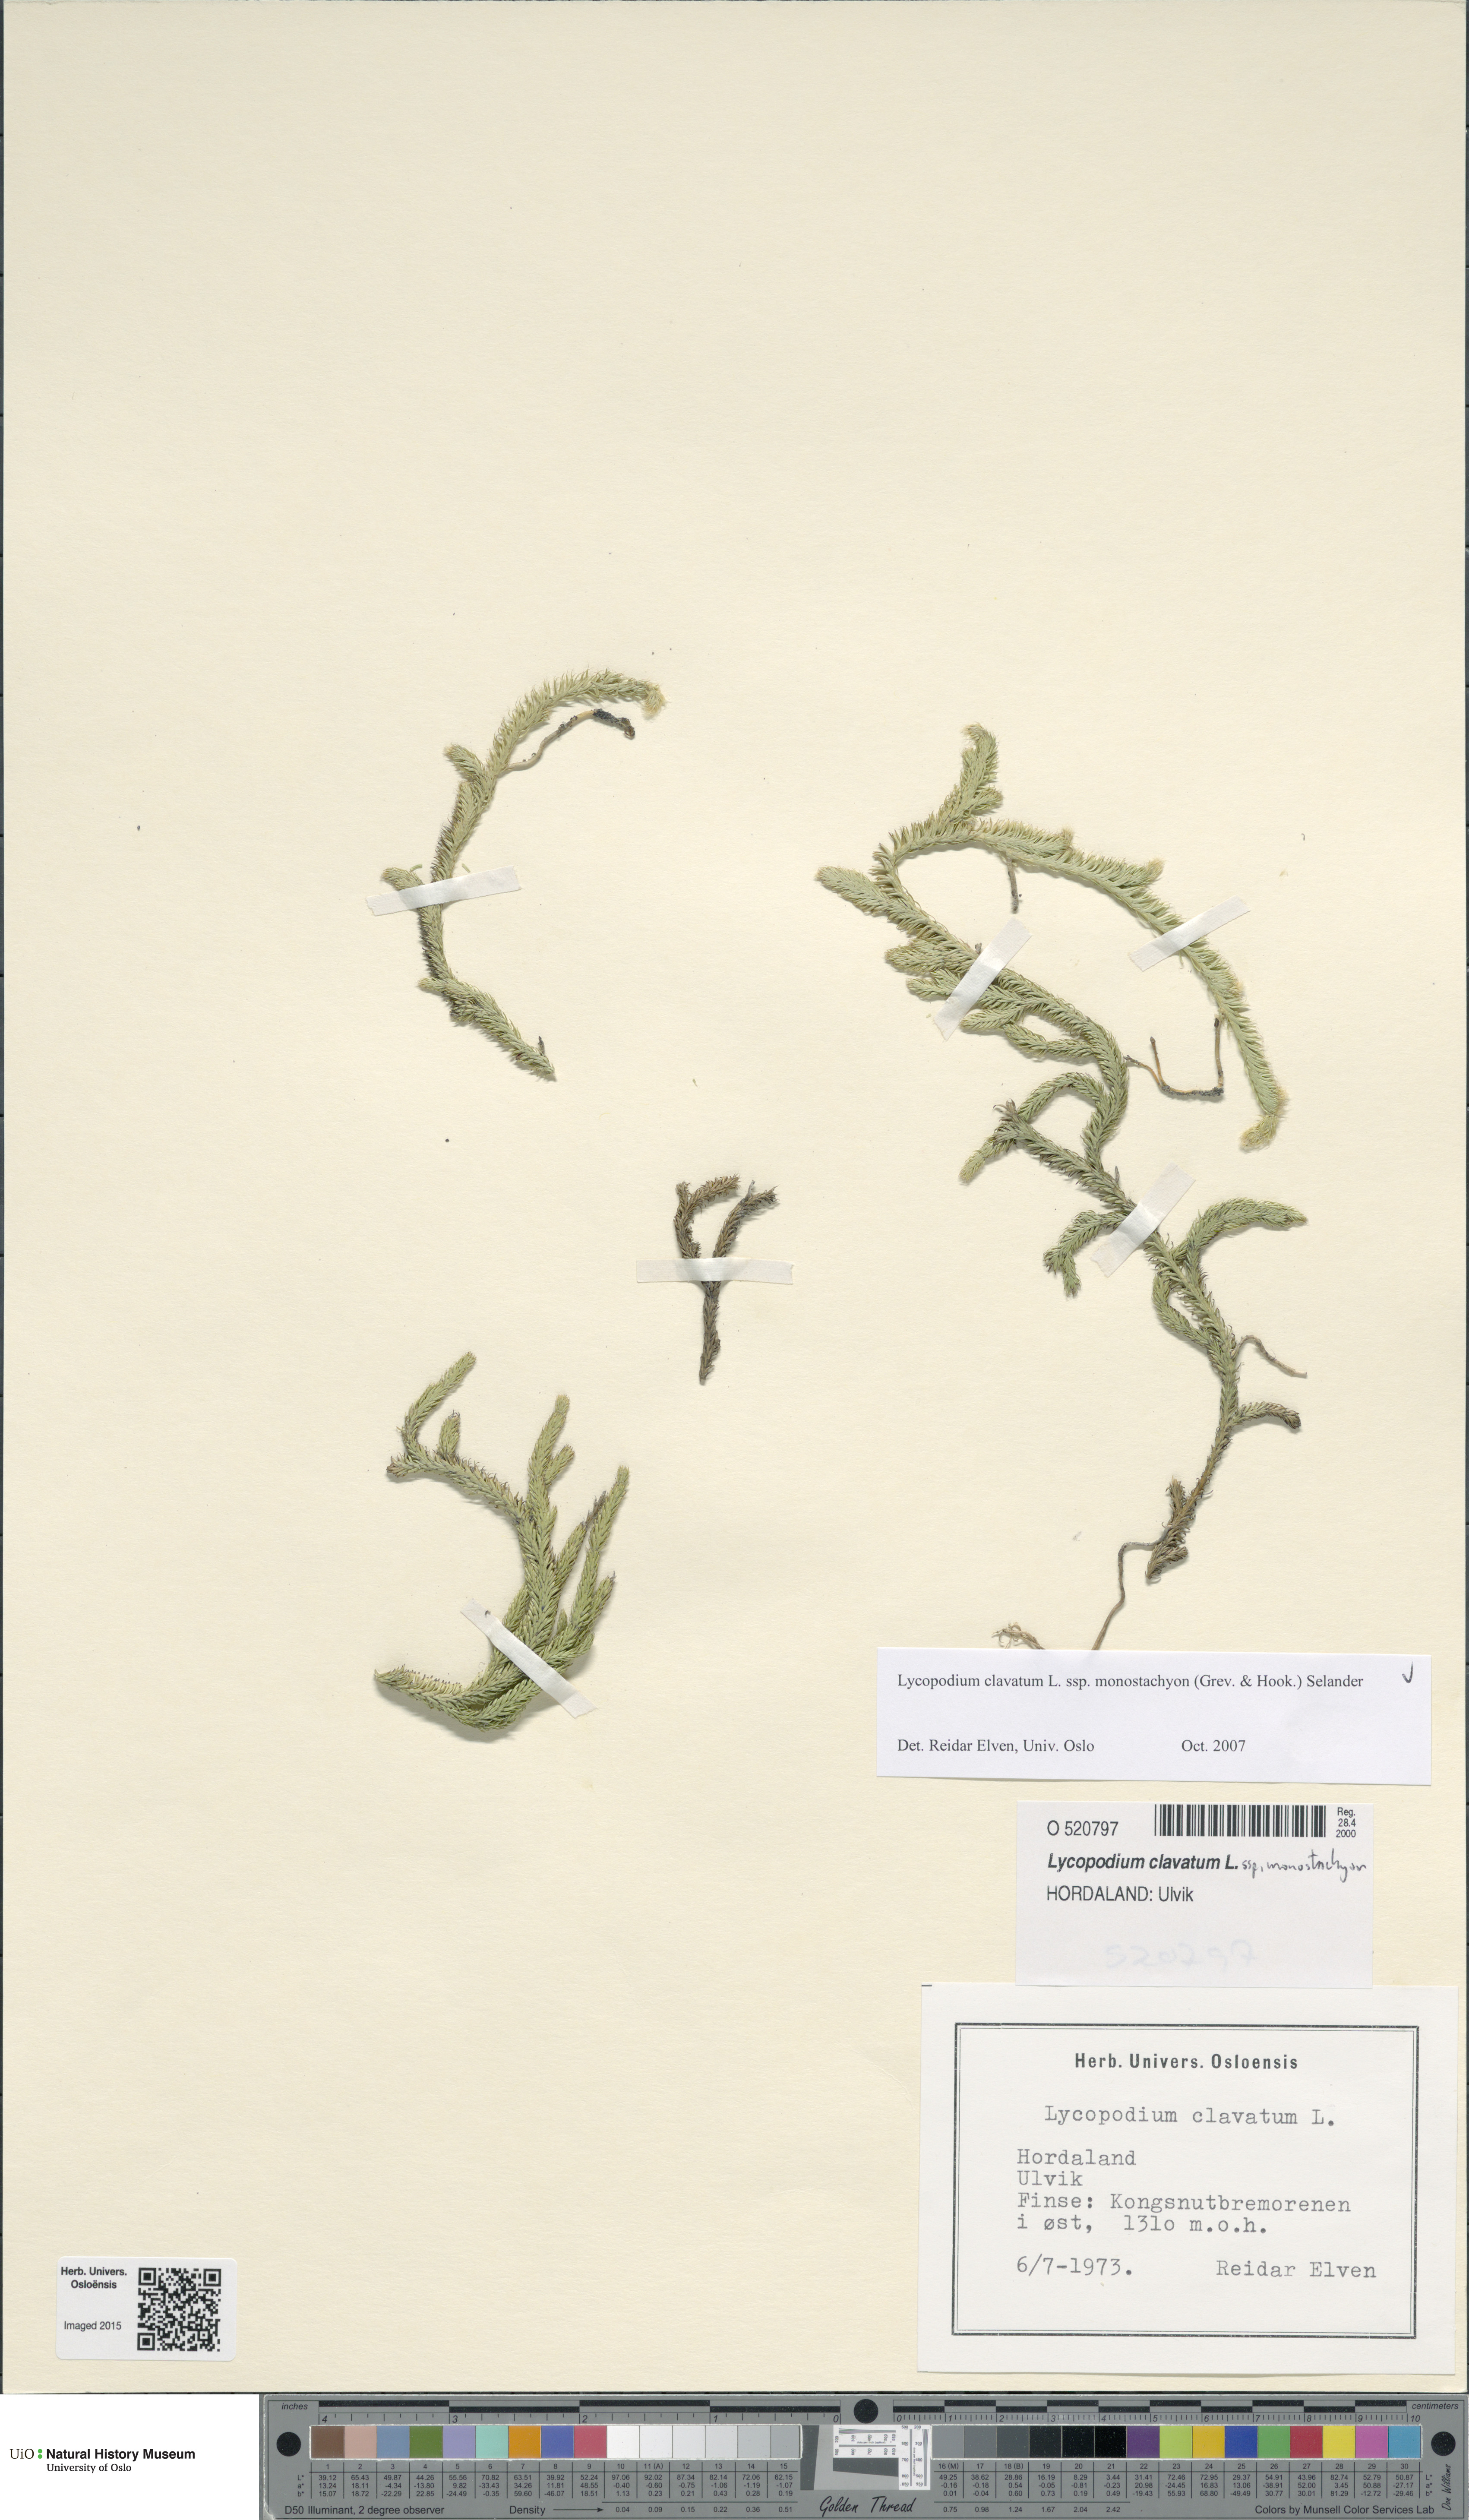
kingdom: Plantae
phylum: Tracheophyta
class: Lycopodiopsida
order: Lycopodiales
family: Lycopodiaceae
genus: Lycopodium
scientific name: Lycopodium lagopus
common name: One-cone clubmoss
